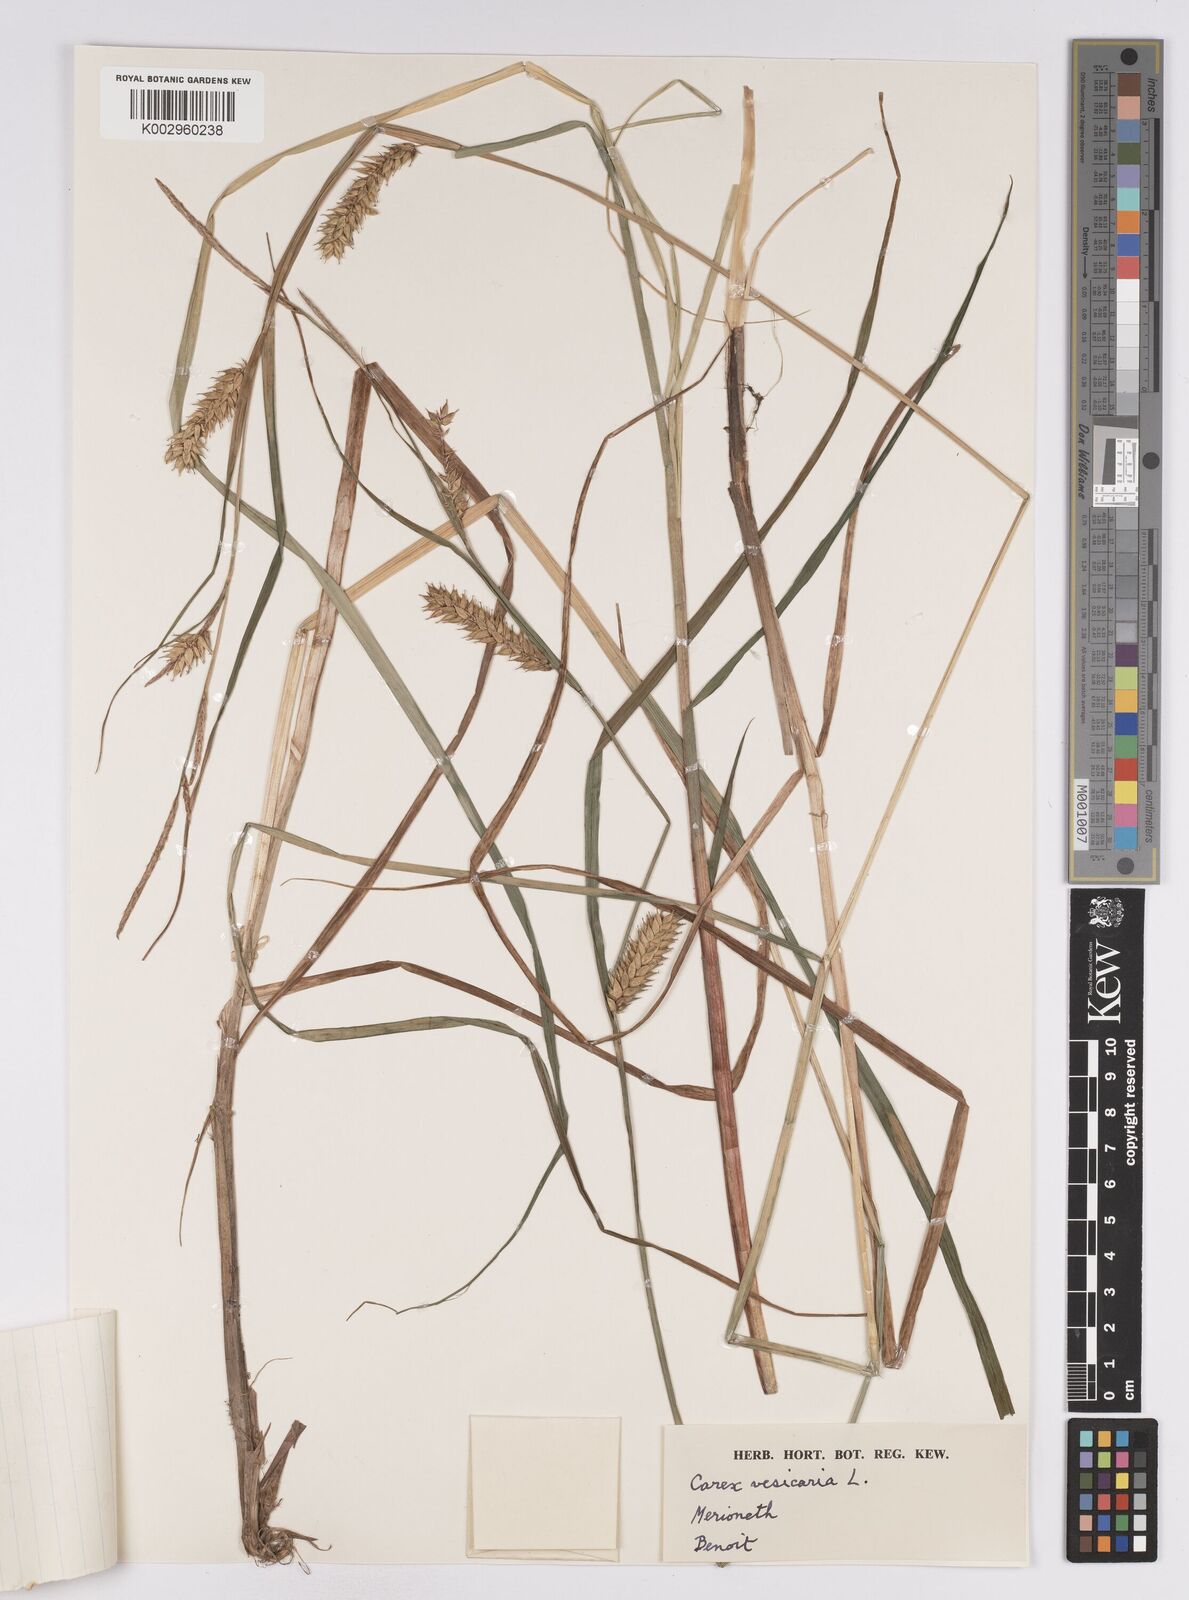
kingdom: Plantae
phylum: Tracheophyta
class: Liliopsida
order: Poales
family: Cyperaceae
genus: Carex
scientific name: Carex vesicaria
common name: Bladder-sedge
